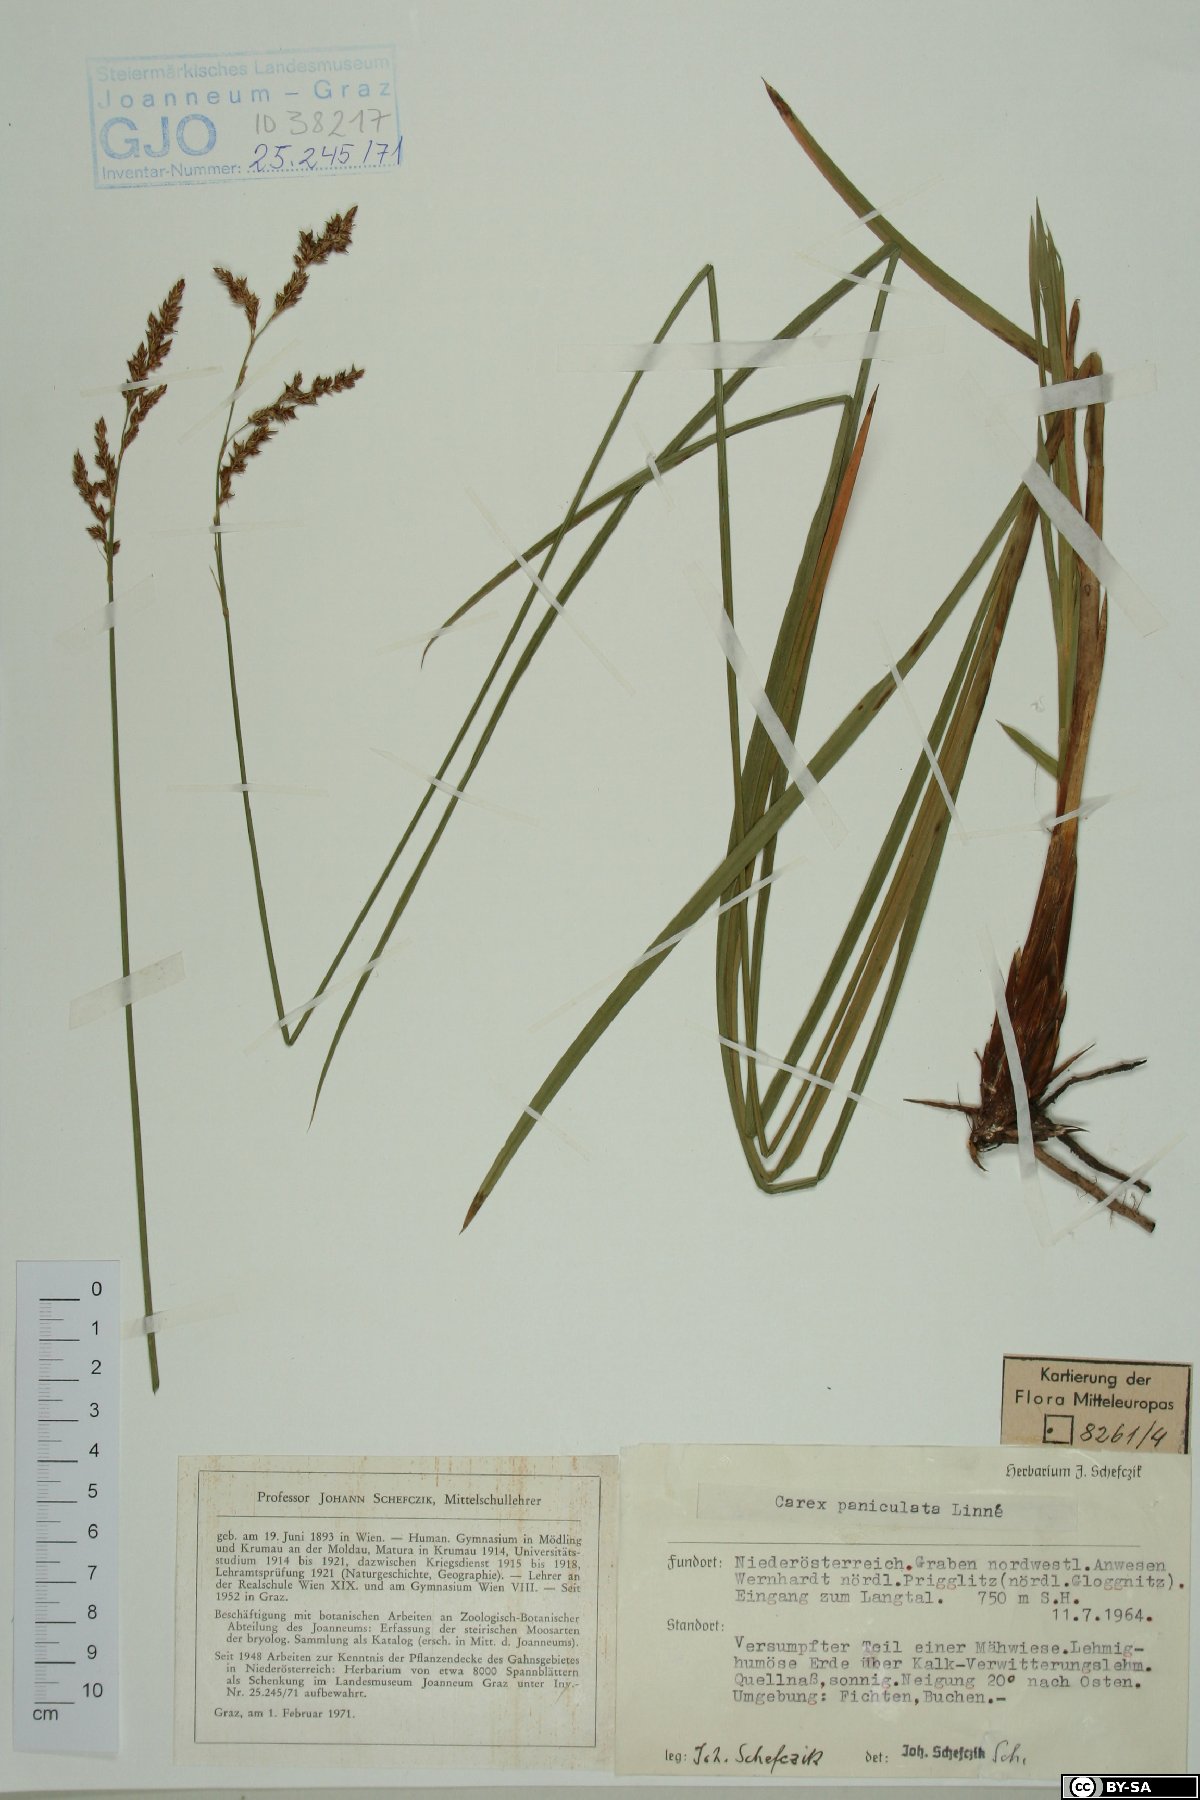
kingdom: Plantae
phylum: Tracheophyta
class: Liliopsida
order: Poales
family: Cyperaceae
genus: Carex
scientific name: Carex paniculata
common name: Greater tussock-sedge
